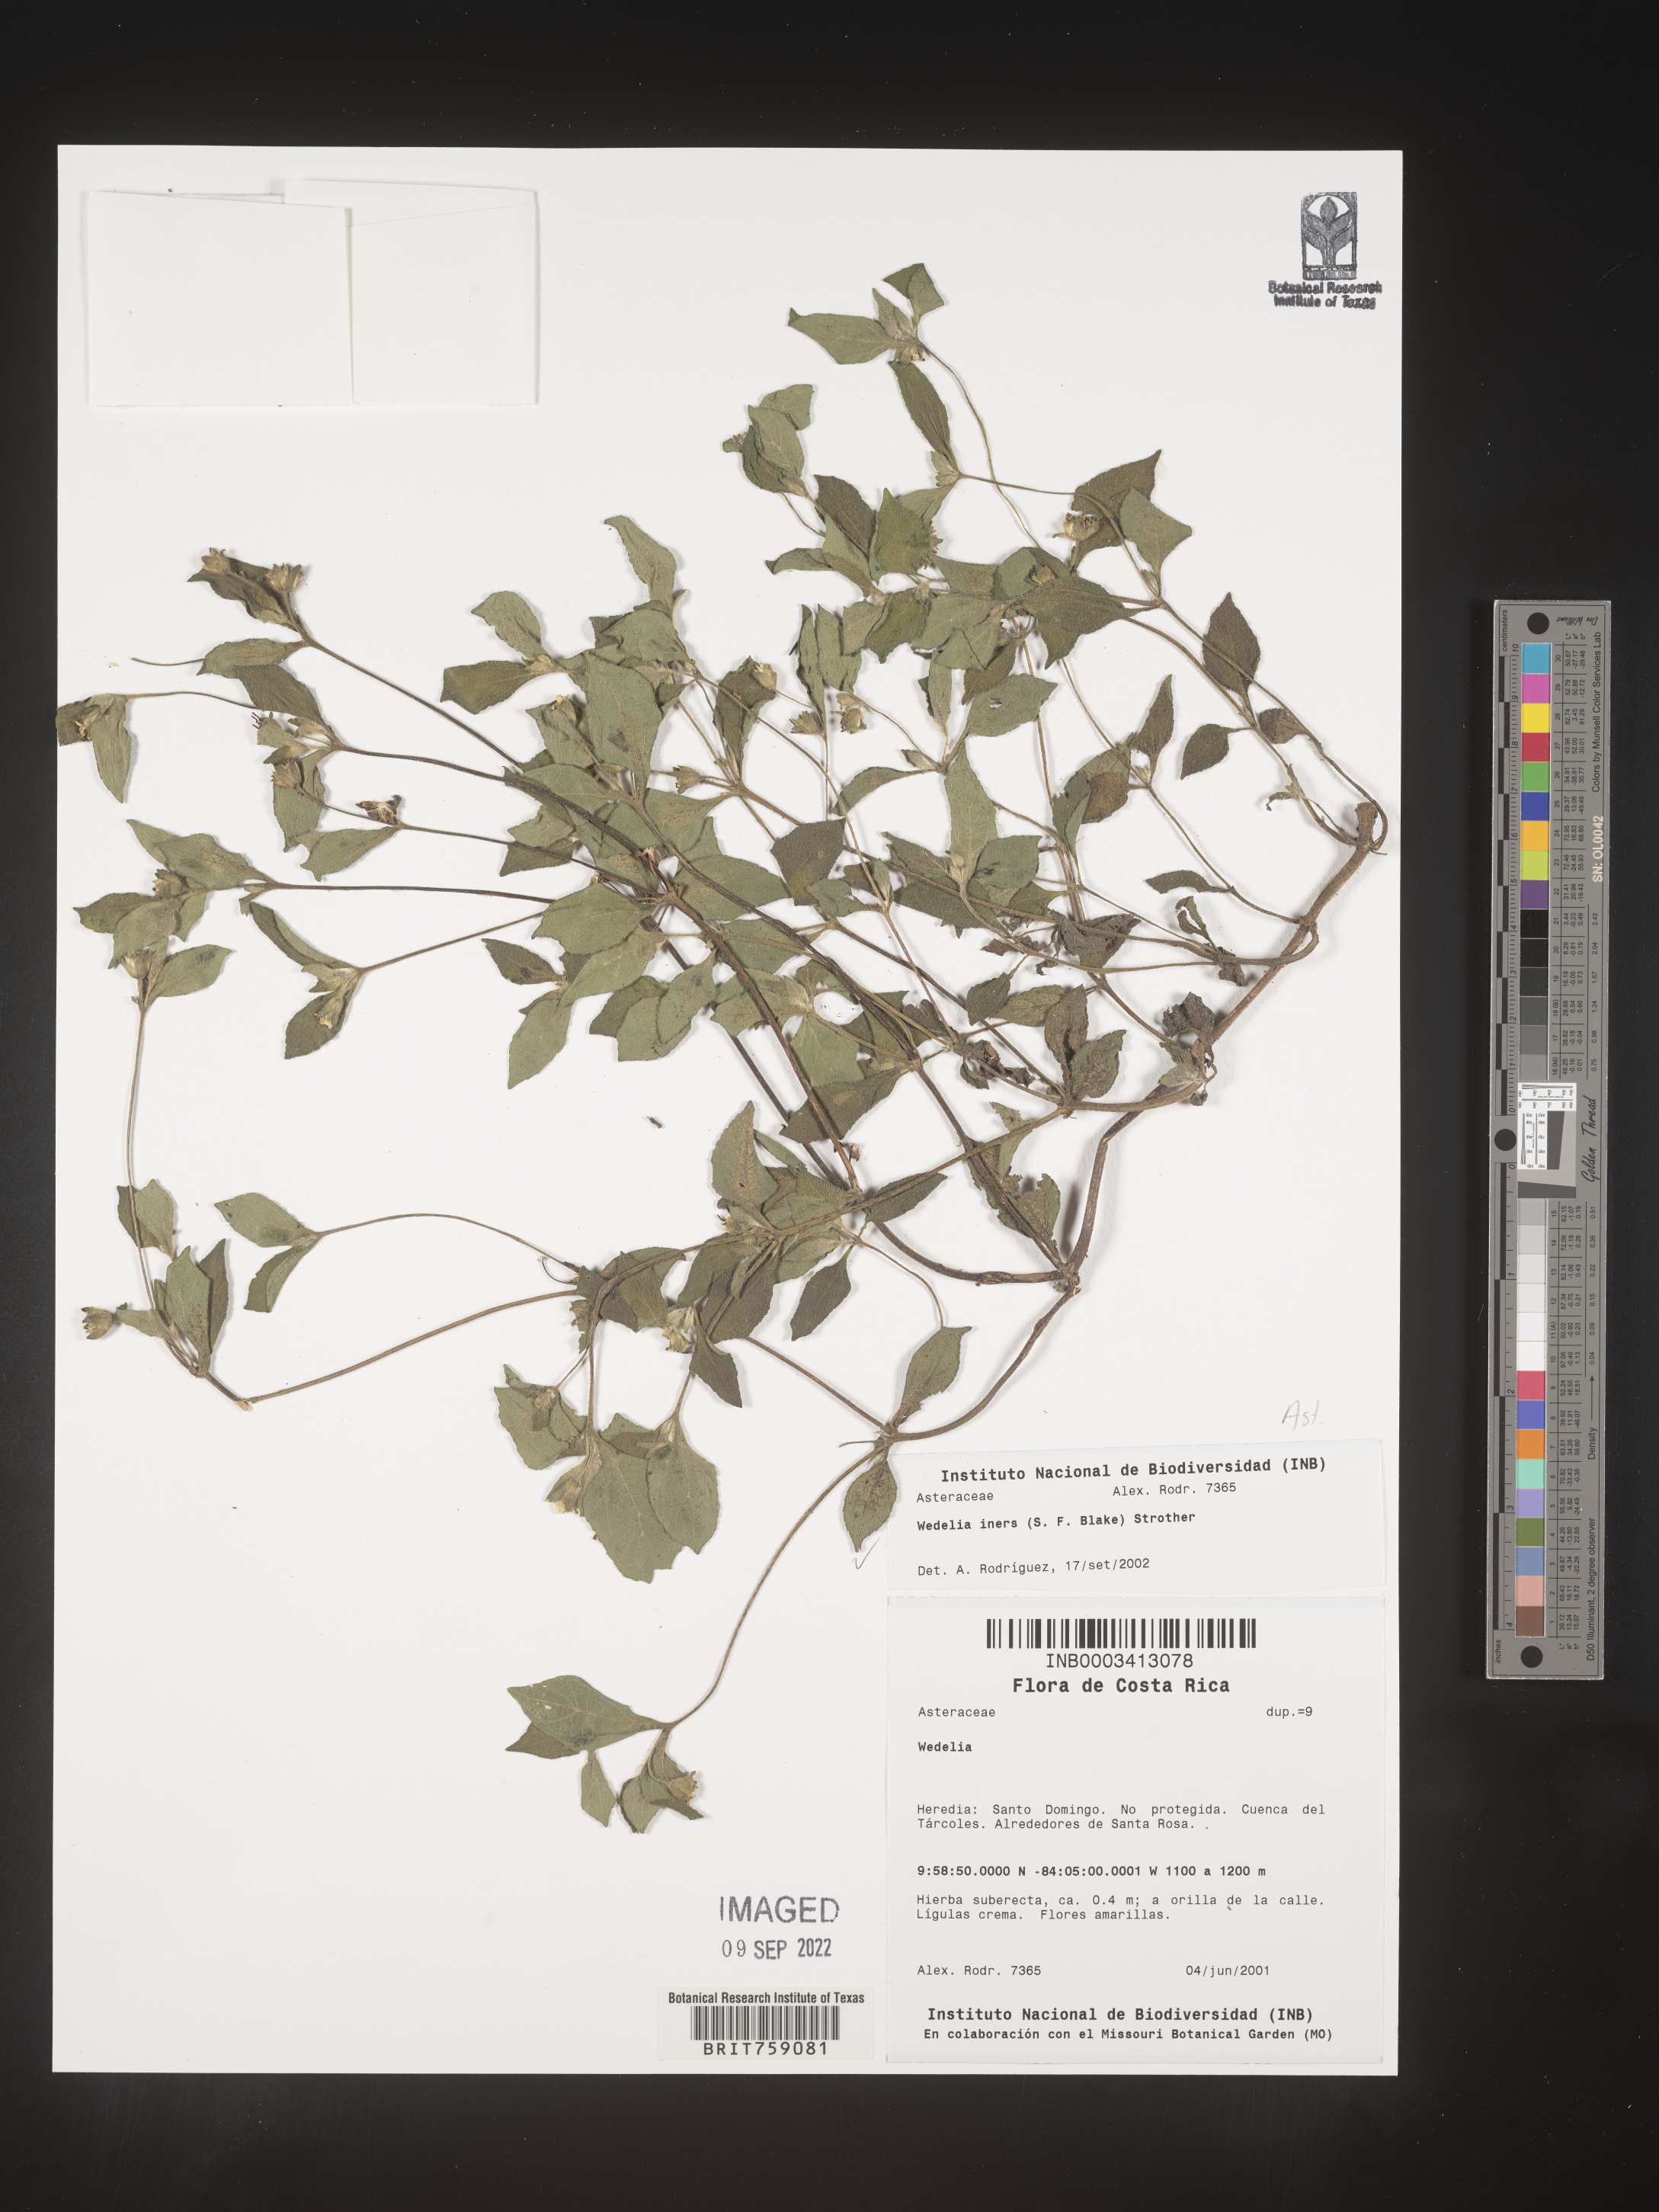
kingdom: Plantae
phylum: Tracheophyta
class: Magnoliopsida
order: Asterales
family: Asteraceae
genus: Wedelia
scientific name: Wedelia
